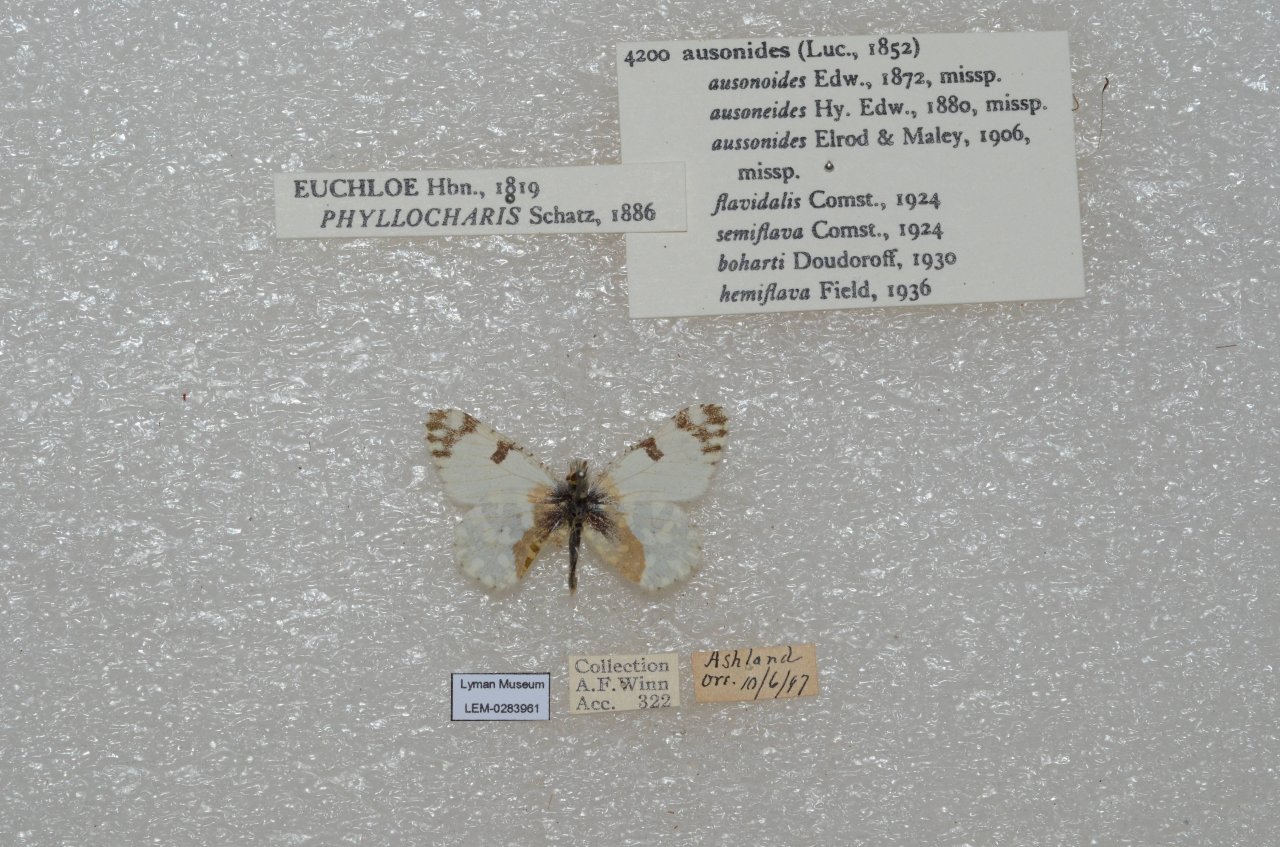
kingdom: Animalia
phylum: Arthropoda
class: Insecta
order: Lepidoptera
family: Pieridae
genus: Euchloe
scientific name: Euchloe ausonides
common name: Large Marble
